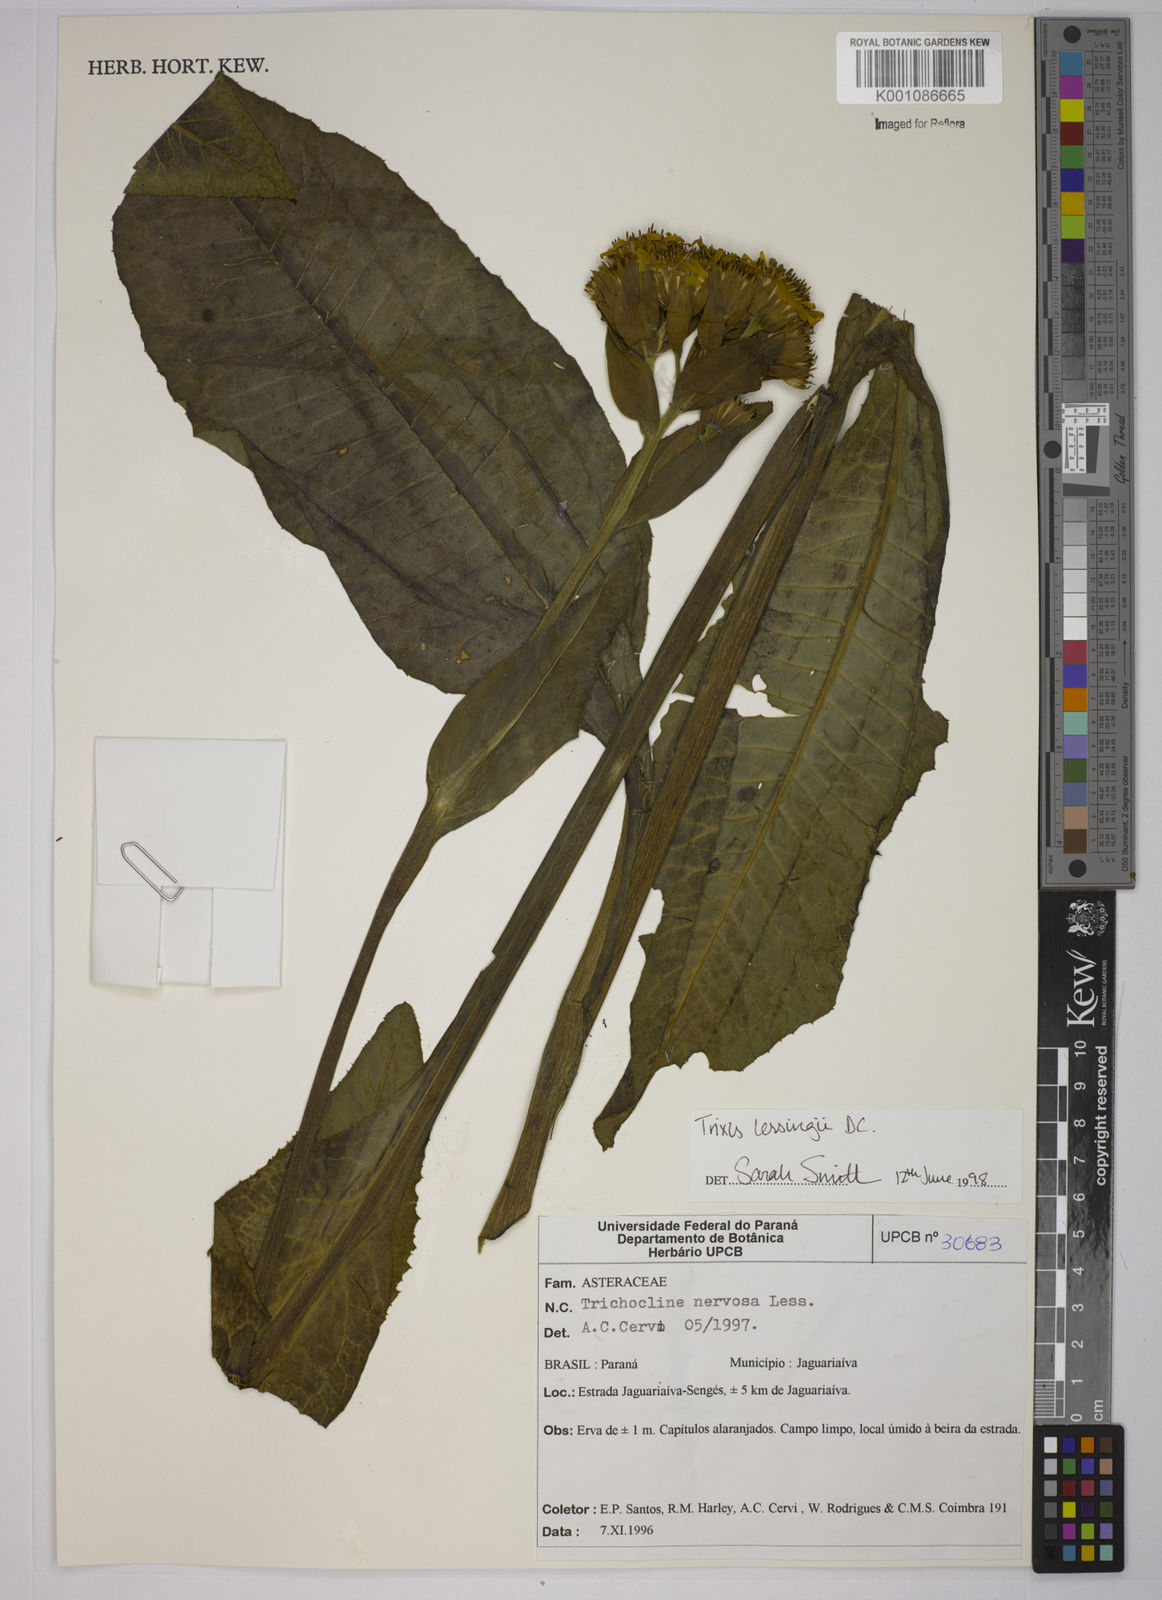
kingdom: Plantae
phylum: Tracheophyta
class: Magnoliopsida
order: Asterales
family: Asteraceae
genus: Trixis
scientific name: Trixis lessingii
